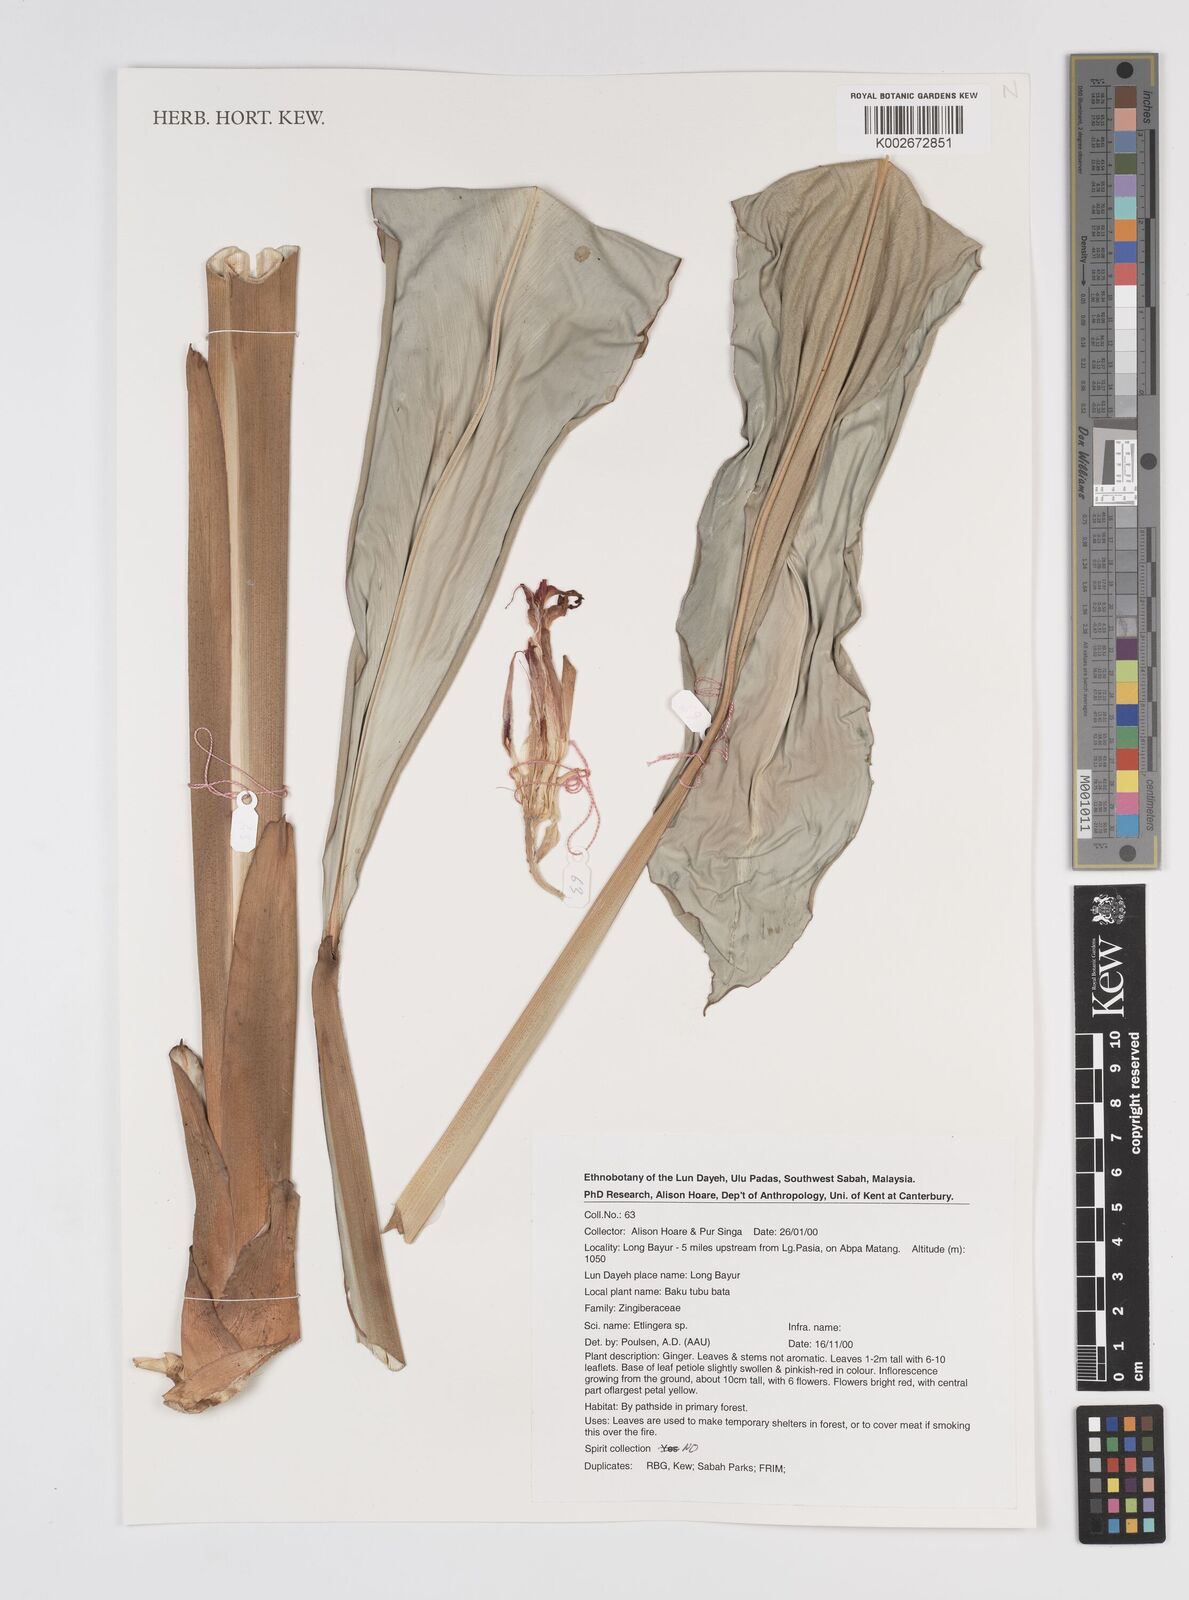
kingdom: Plantae
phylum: Tracheophyta
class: Liliopsida
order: Zingiberales
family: Zingiberaceae
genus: Etlingera
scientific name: Etlingera
